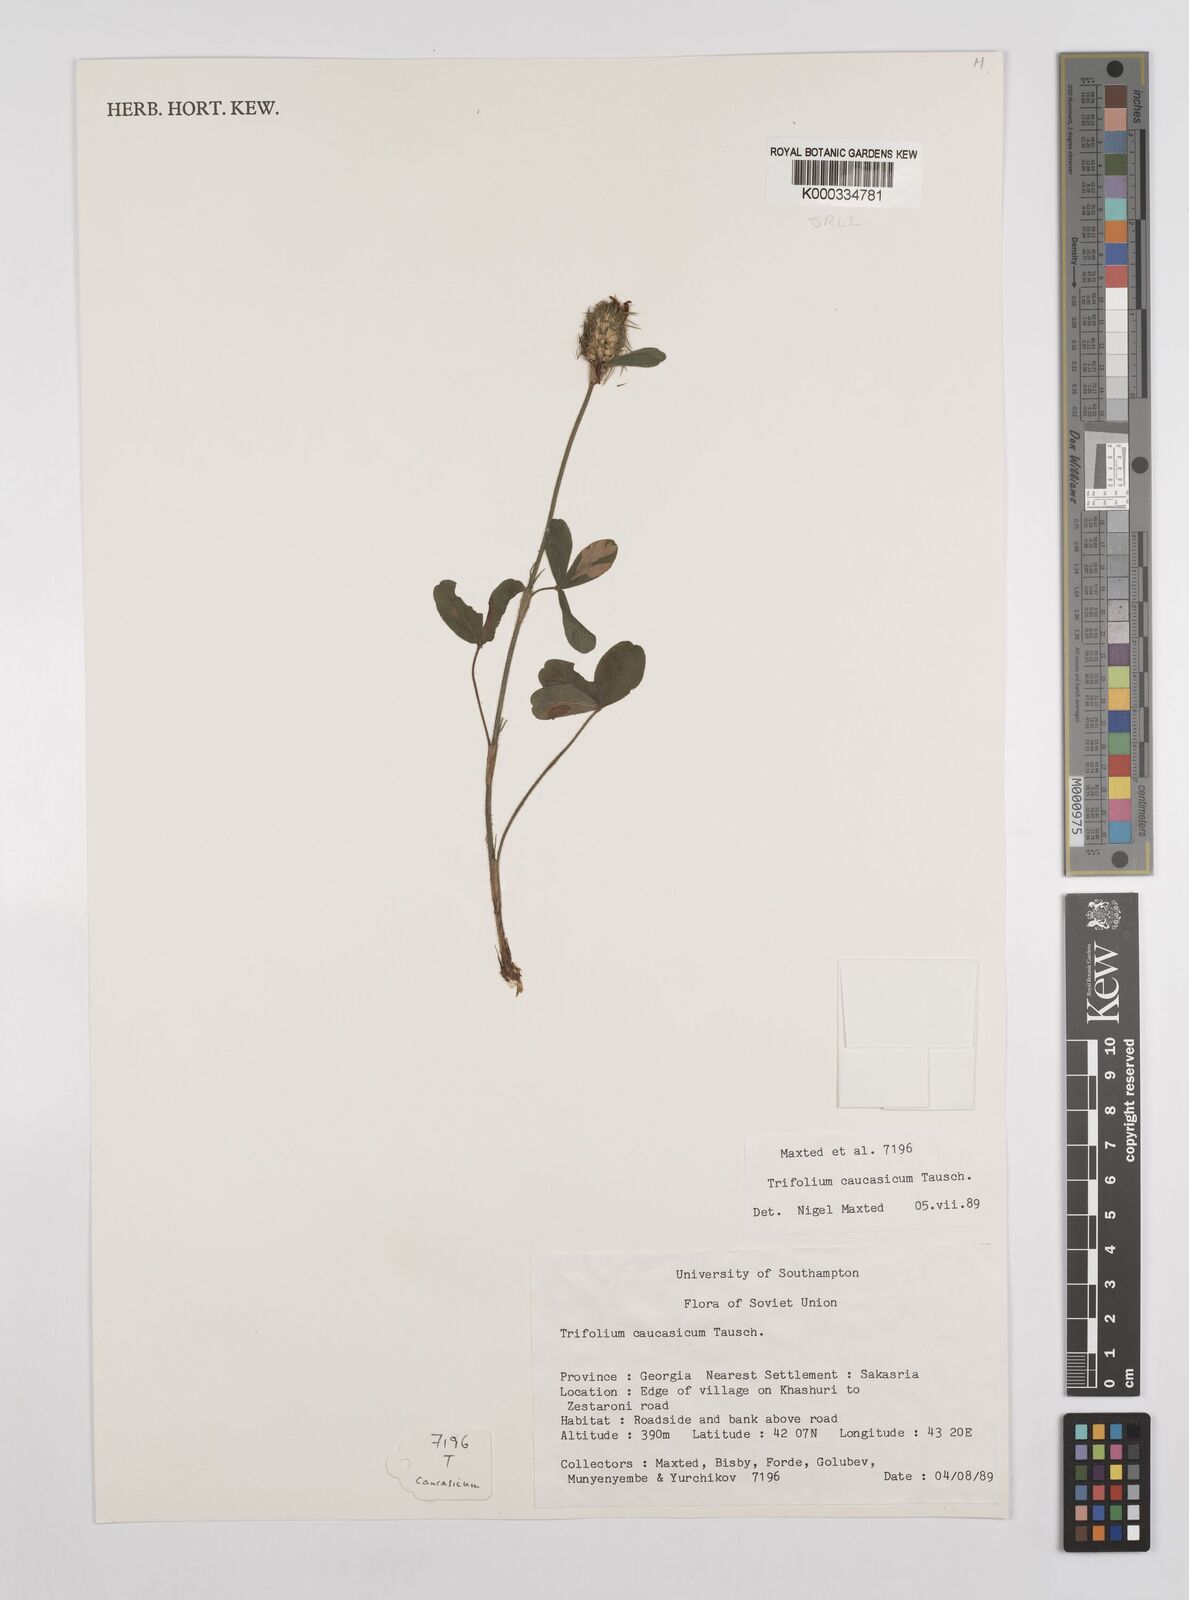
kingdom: Plantae
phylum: Tracheophyta
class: Magnoliopsida
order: Fabales
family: Fabaceae
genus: Trifolium
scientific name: Trifolium ochroleucon
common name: Sulphur clover
